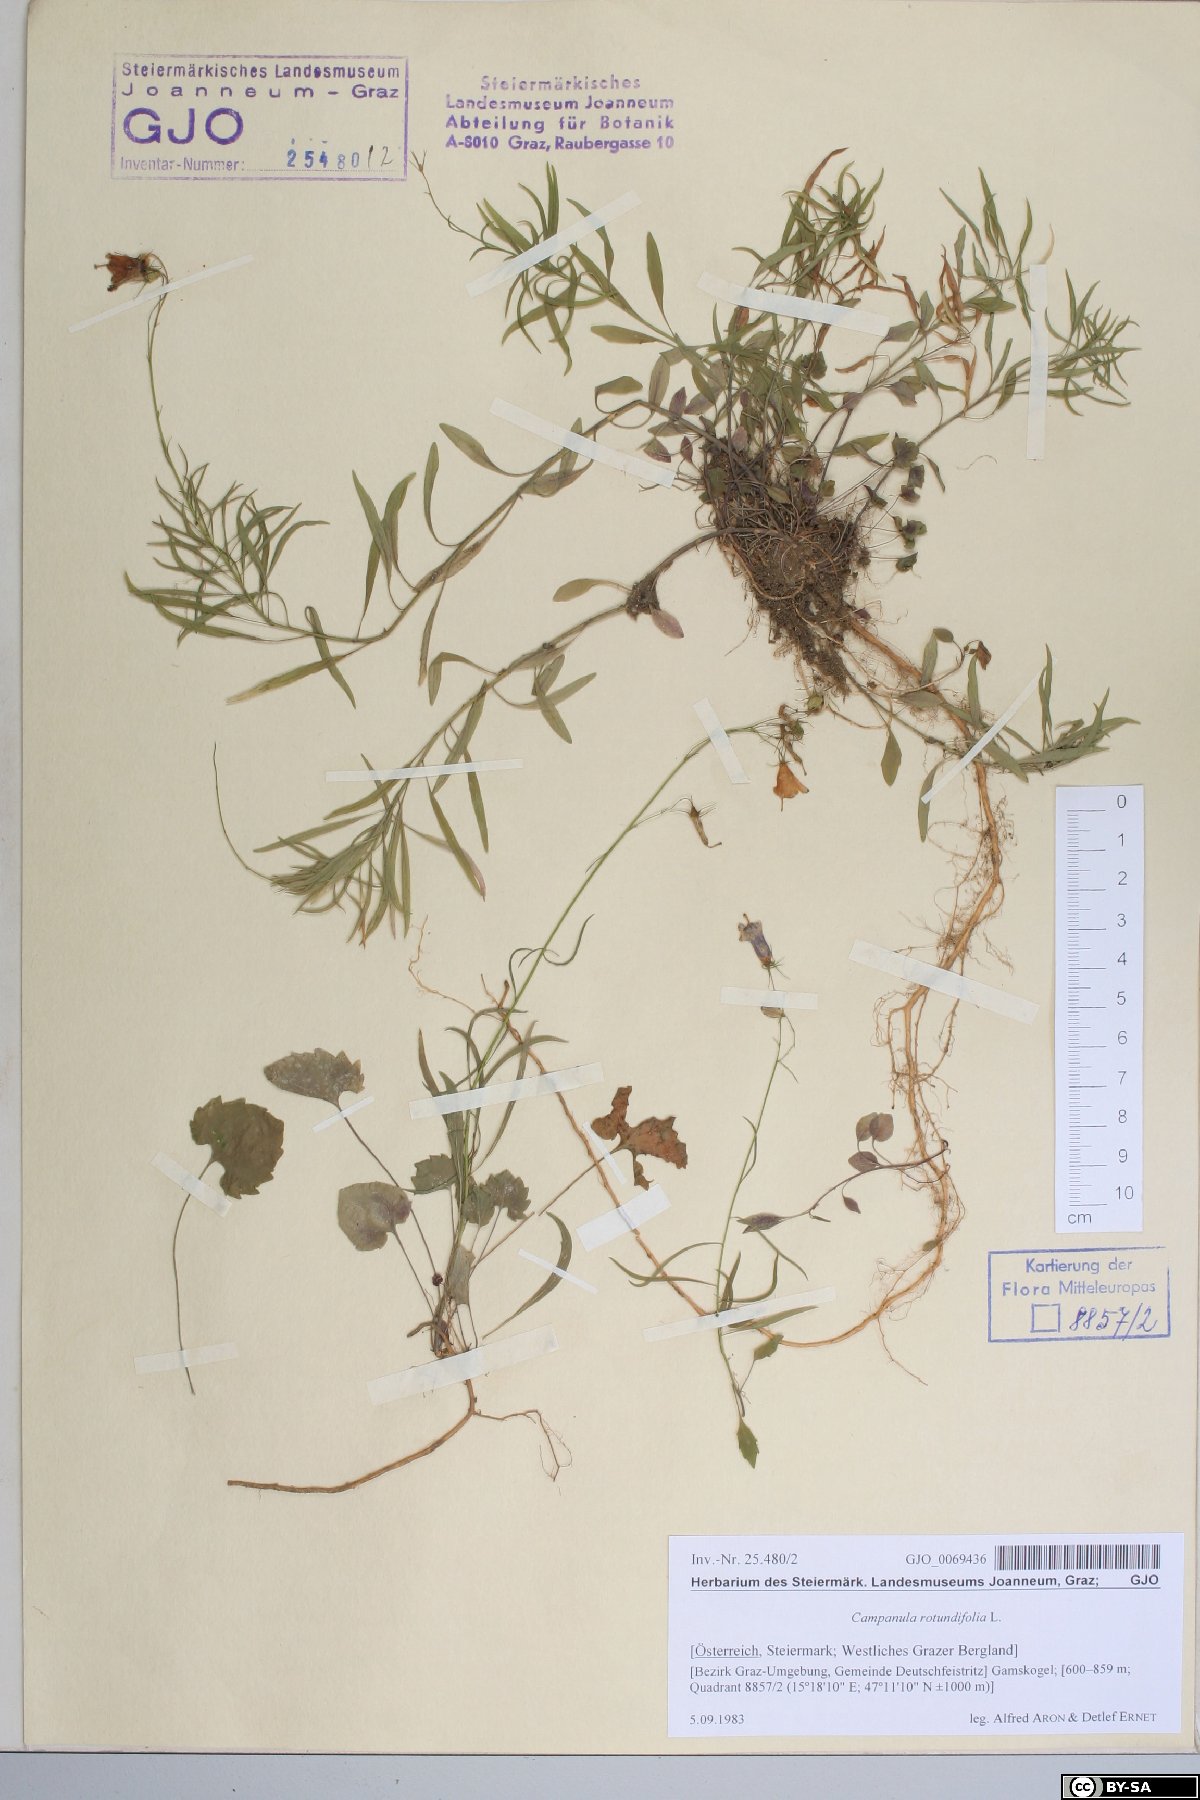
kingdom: Plantae
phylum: Tracheophyta
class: Magnoliopsida
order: Asterales
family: Campanulaceae
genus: Campanula
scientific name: Campanula rotundifolia
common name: Harebell
